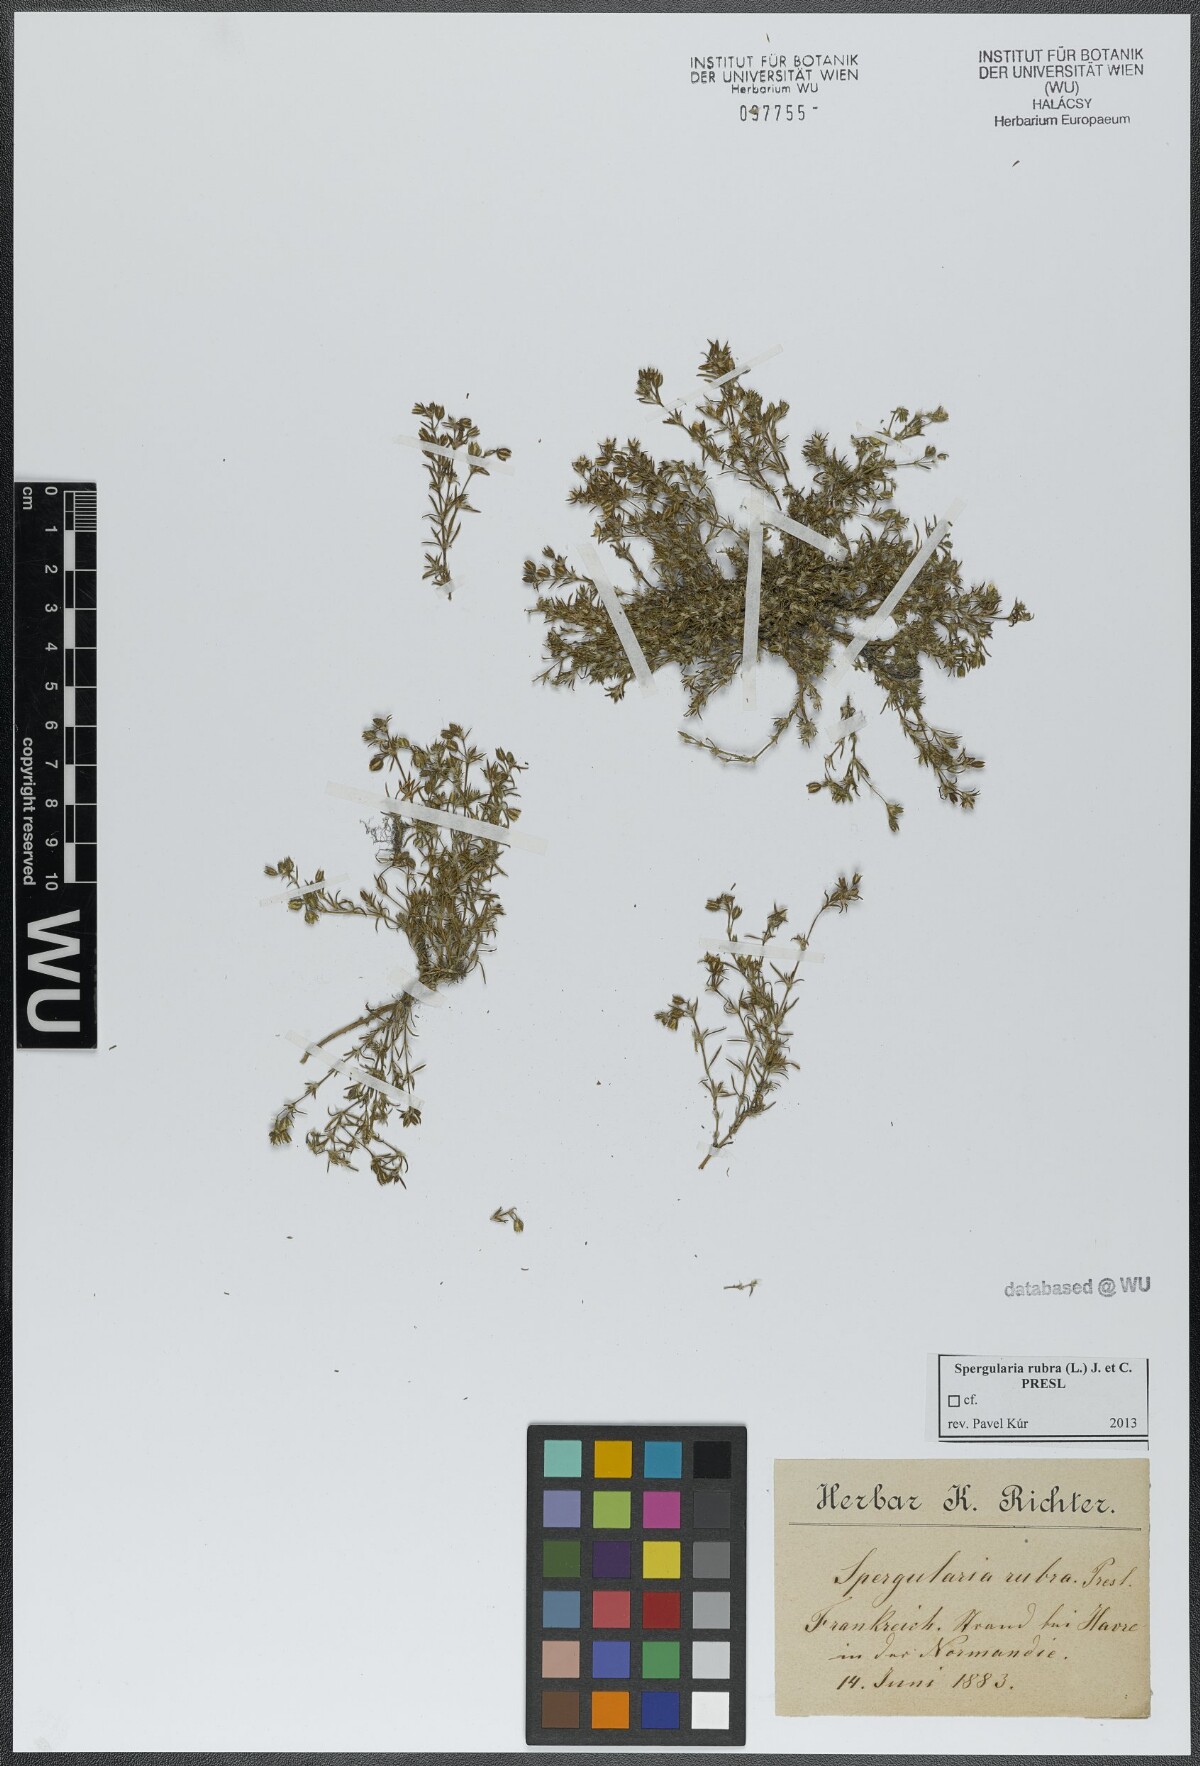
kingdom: Plantae
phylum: Tracheophyta
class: Magnoliopsida
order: Caryophyllales
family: Caryophyllaceae
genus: Spergularia
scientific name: Spergularia rubra
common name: Red sand-spurrey
